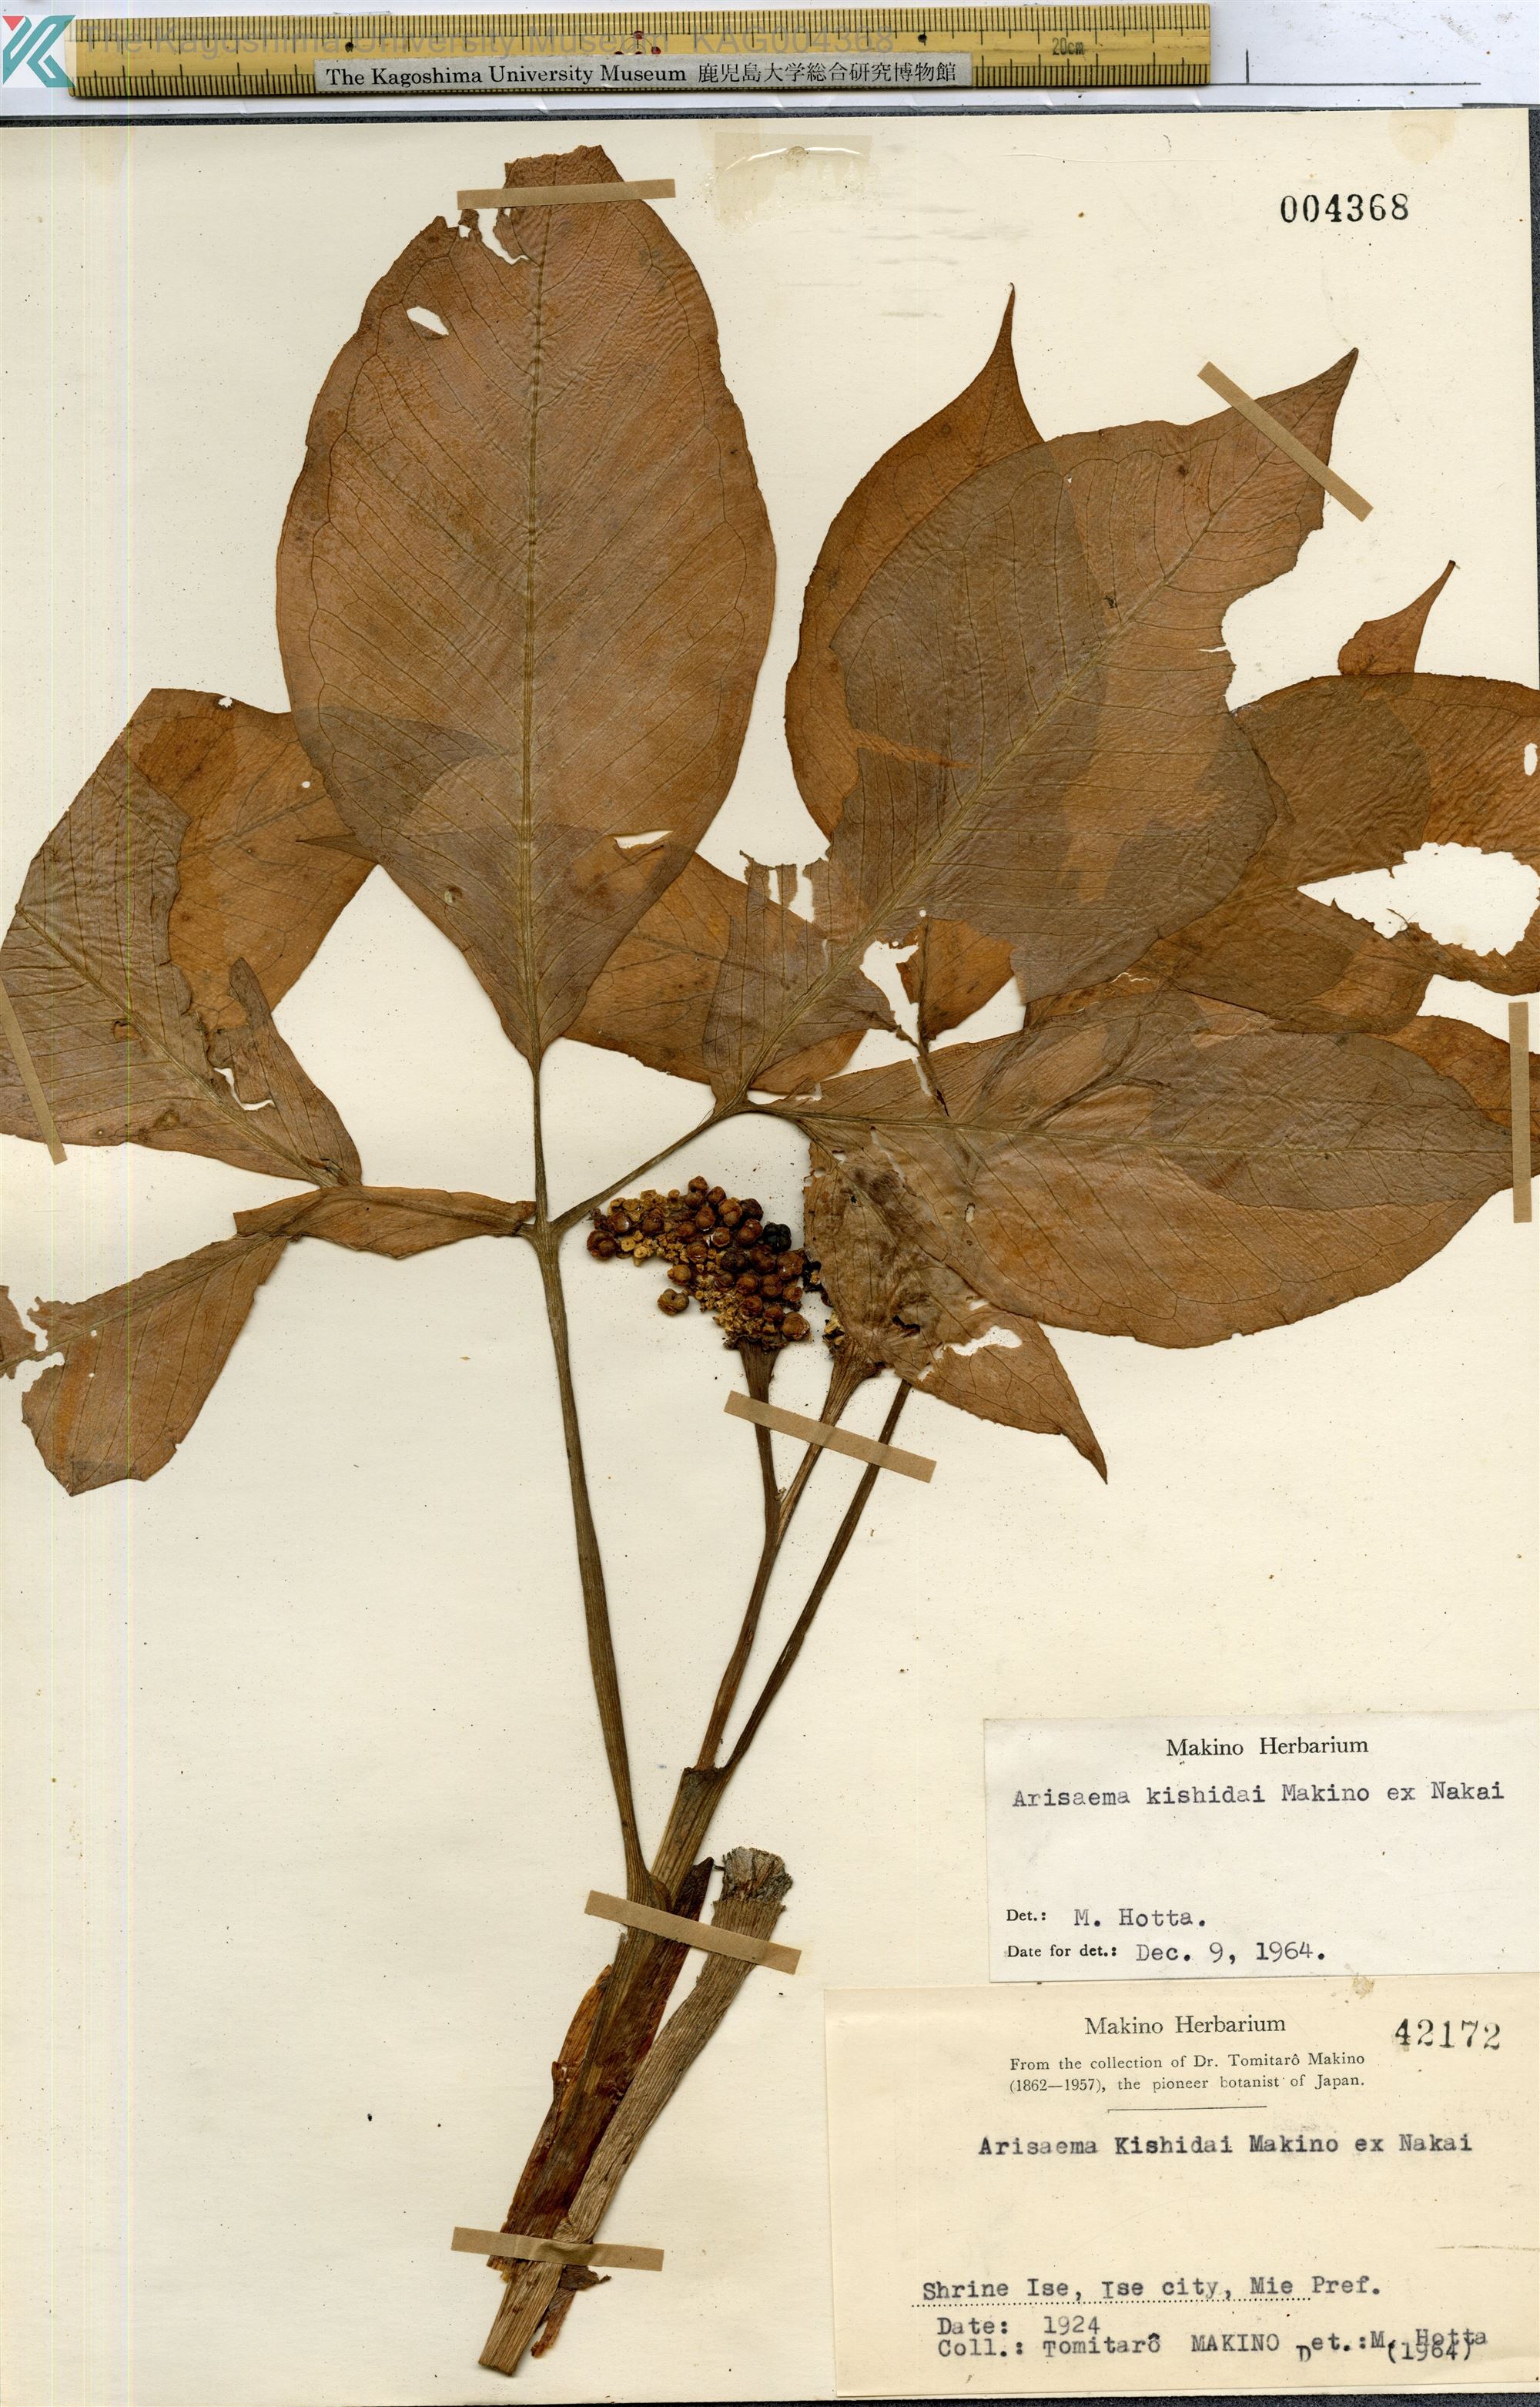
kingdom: Plantae
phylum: Tracheophyta
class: Liliopsida
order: Alismatales
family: Araceae
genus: Arisaema
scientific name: Arisaema kishidai
